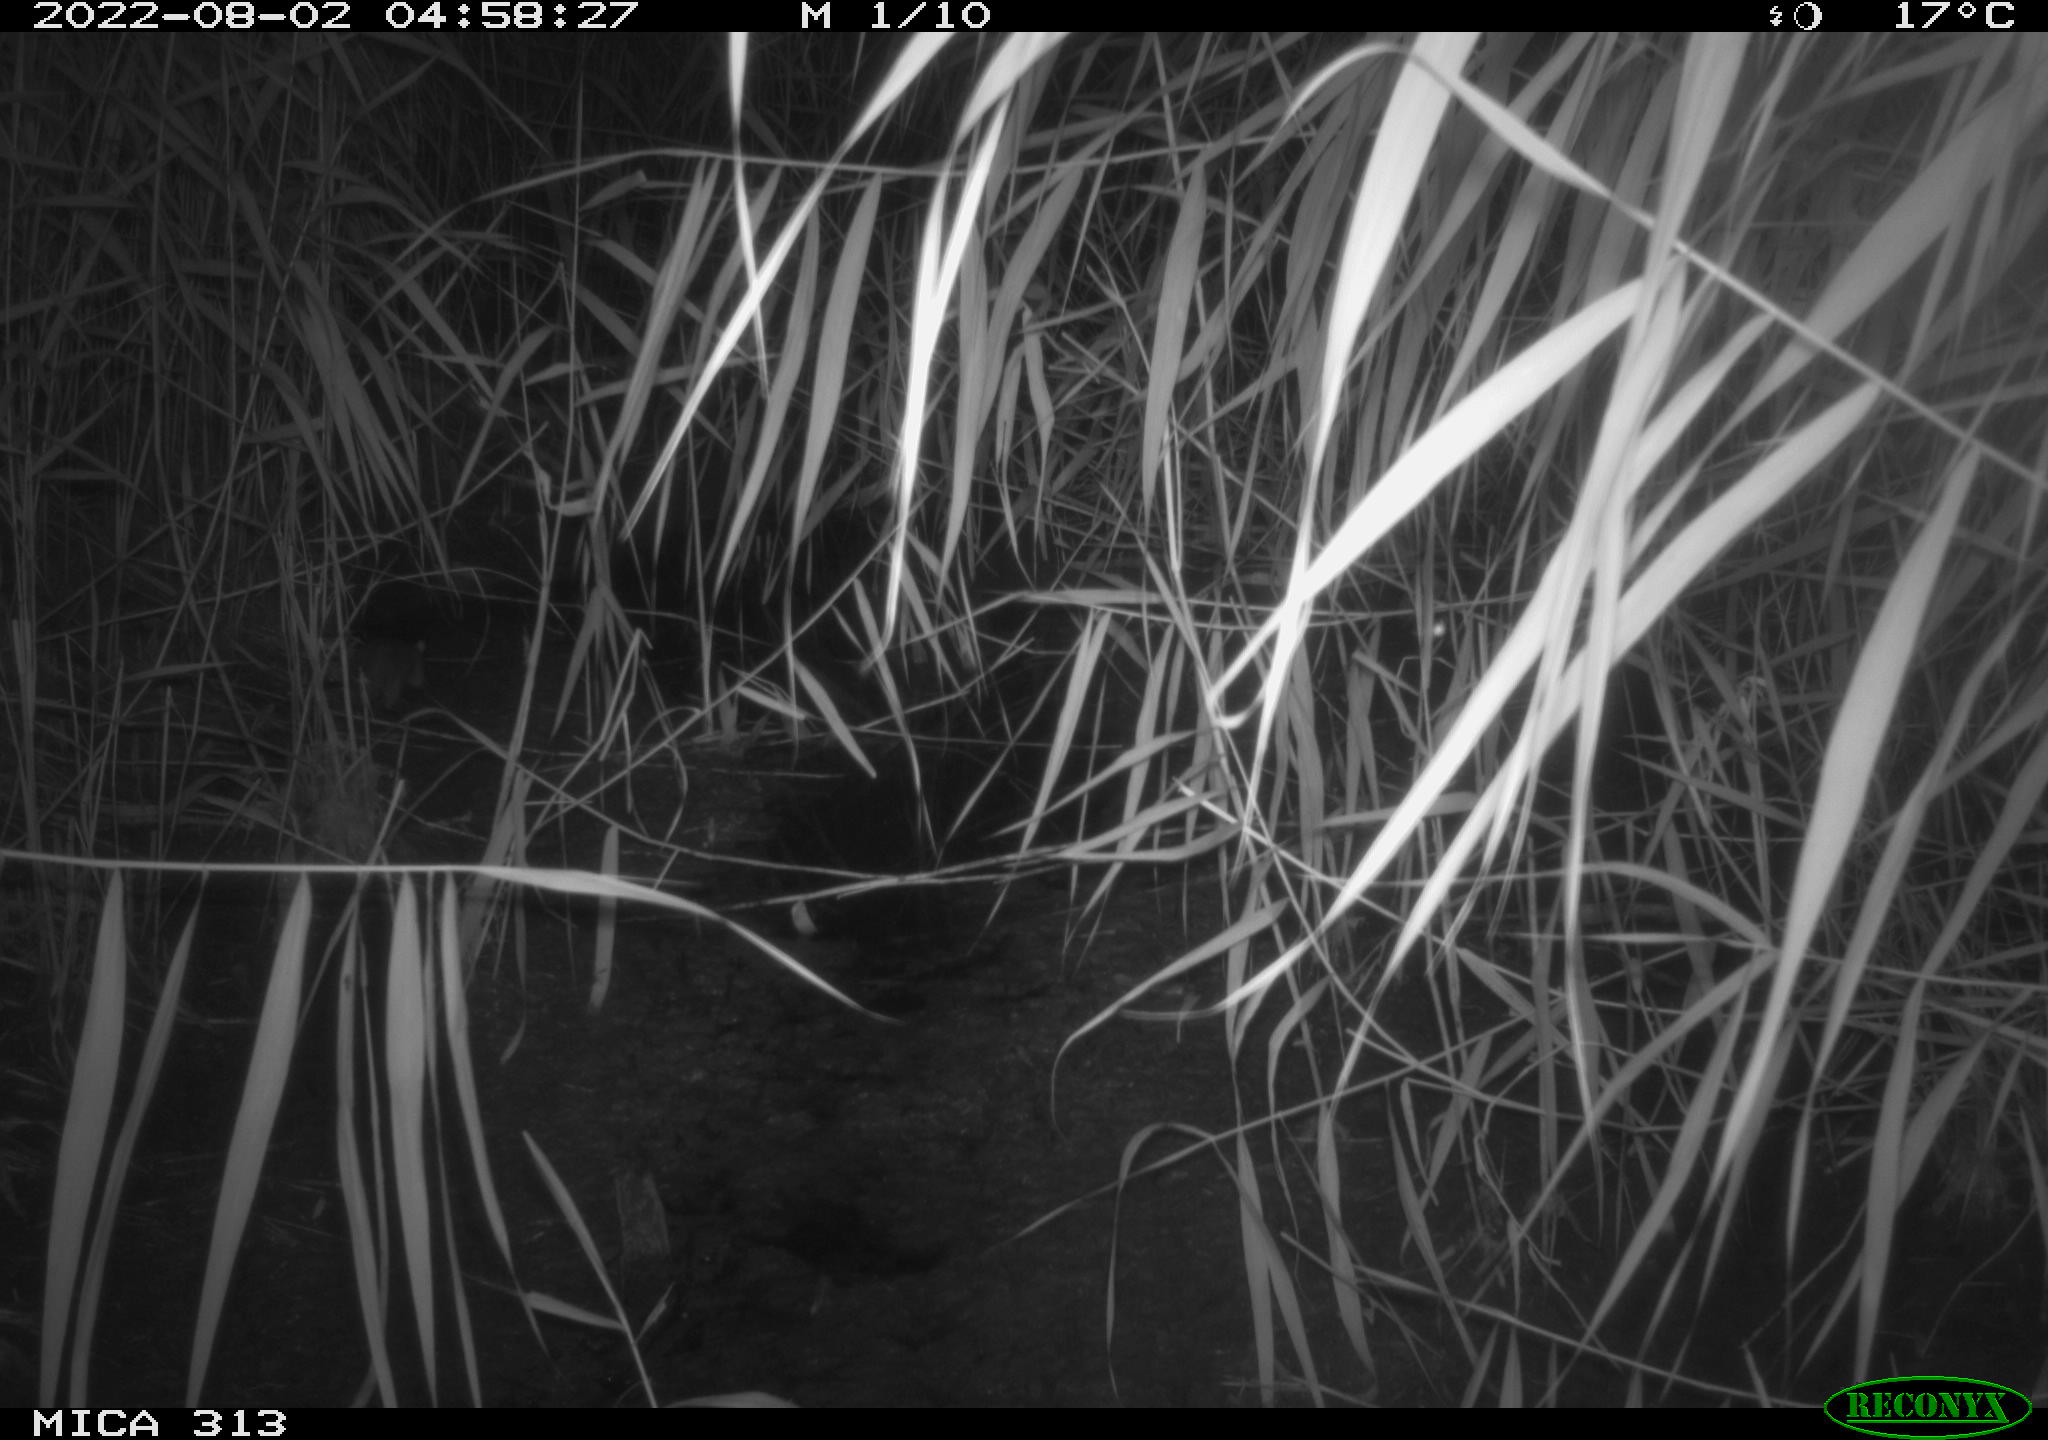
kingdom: Animalia
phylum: Chordata
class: Mammalia
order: Rodentia
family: Muridae
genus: Rattus
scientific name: Rattus norvegicus
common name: Brown rat
